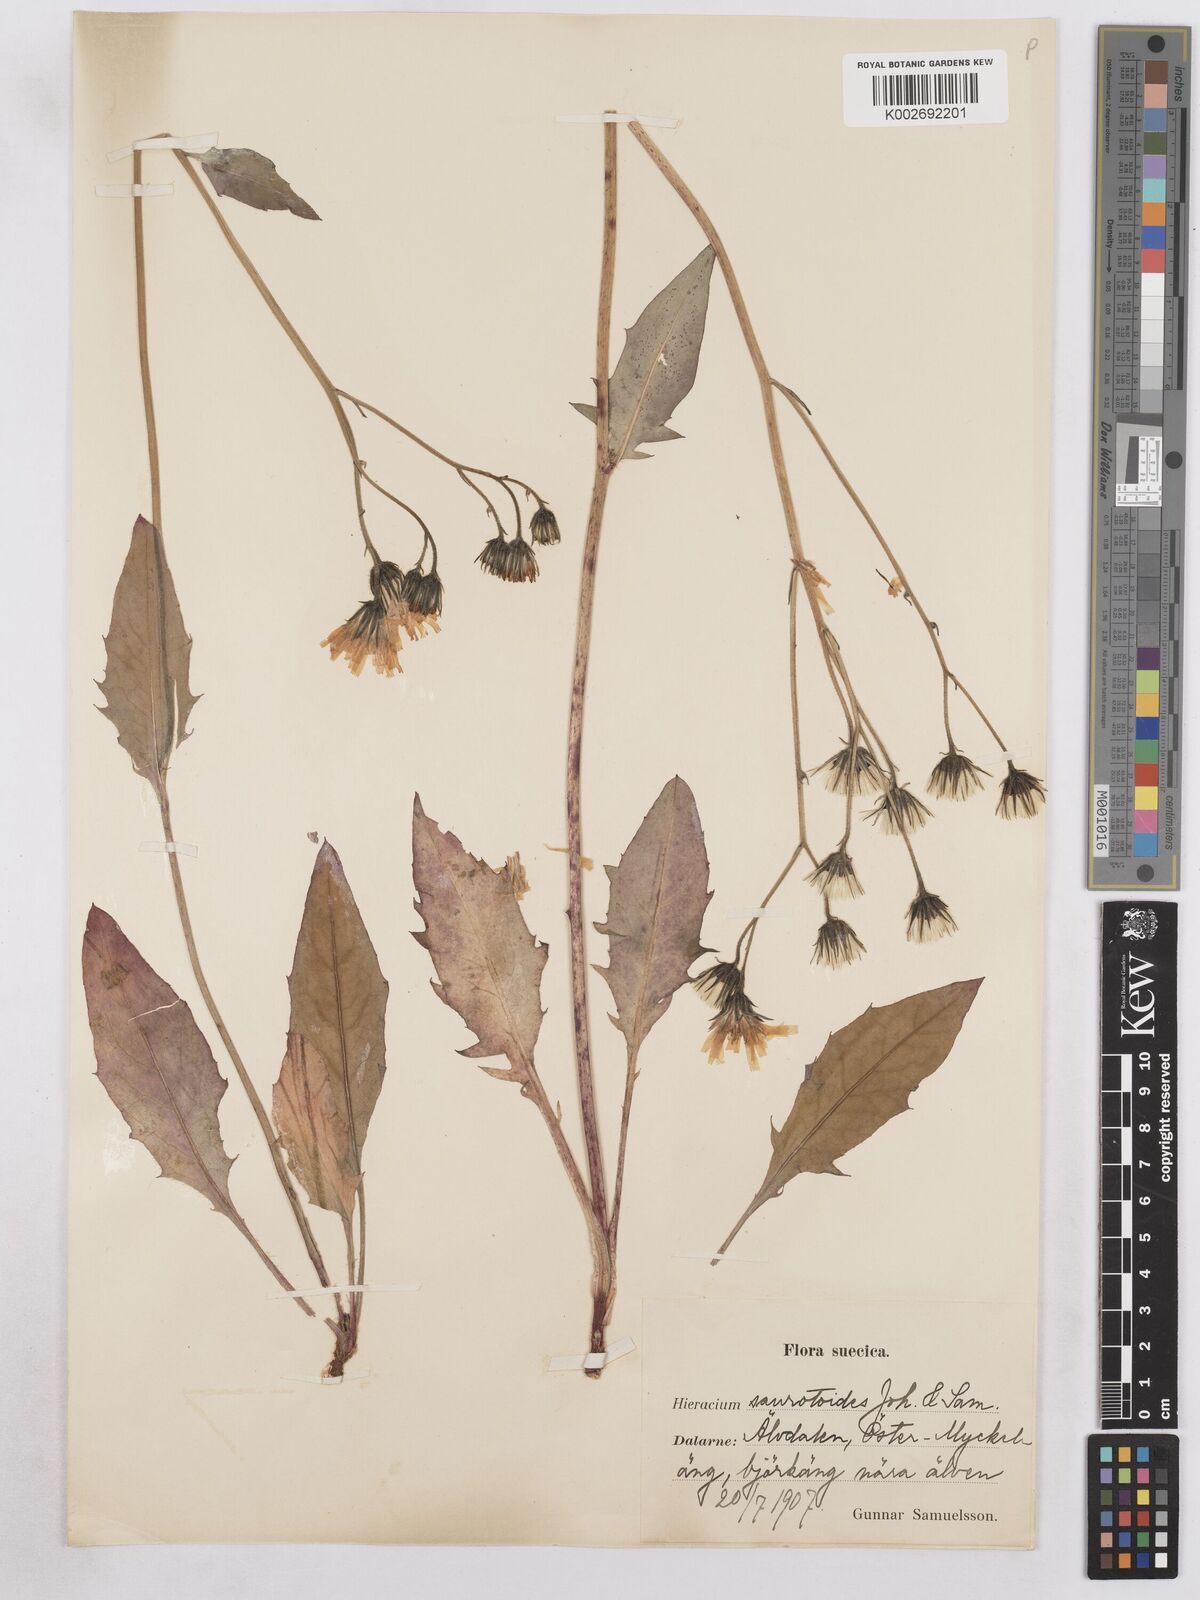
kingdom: Plantae
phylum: Tracheophyta
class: Magnoliopsida
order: Asterales
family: Asteraceae
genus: Hieracium
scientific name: Hieracium diaphanoides
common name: Fine-bracted hawkweed
